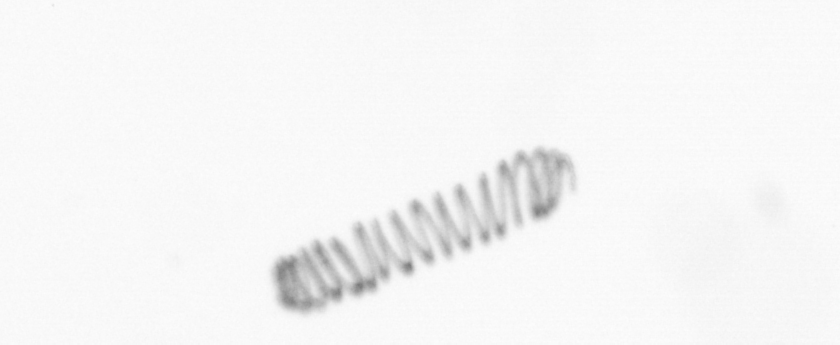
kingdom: Chromista
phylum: Ochrophyta
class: Bacillariophyceae
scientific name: Bacillariophyceae
